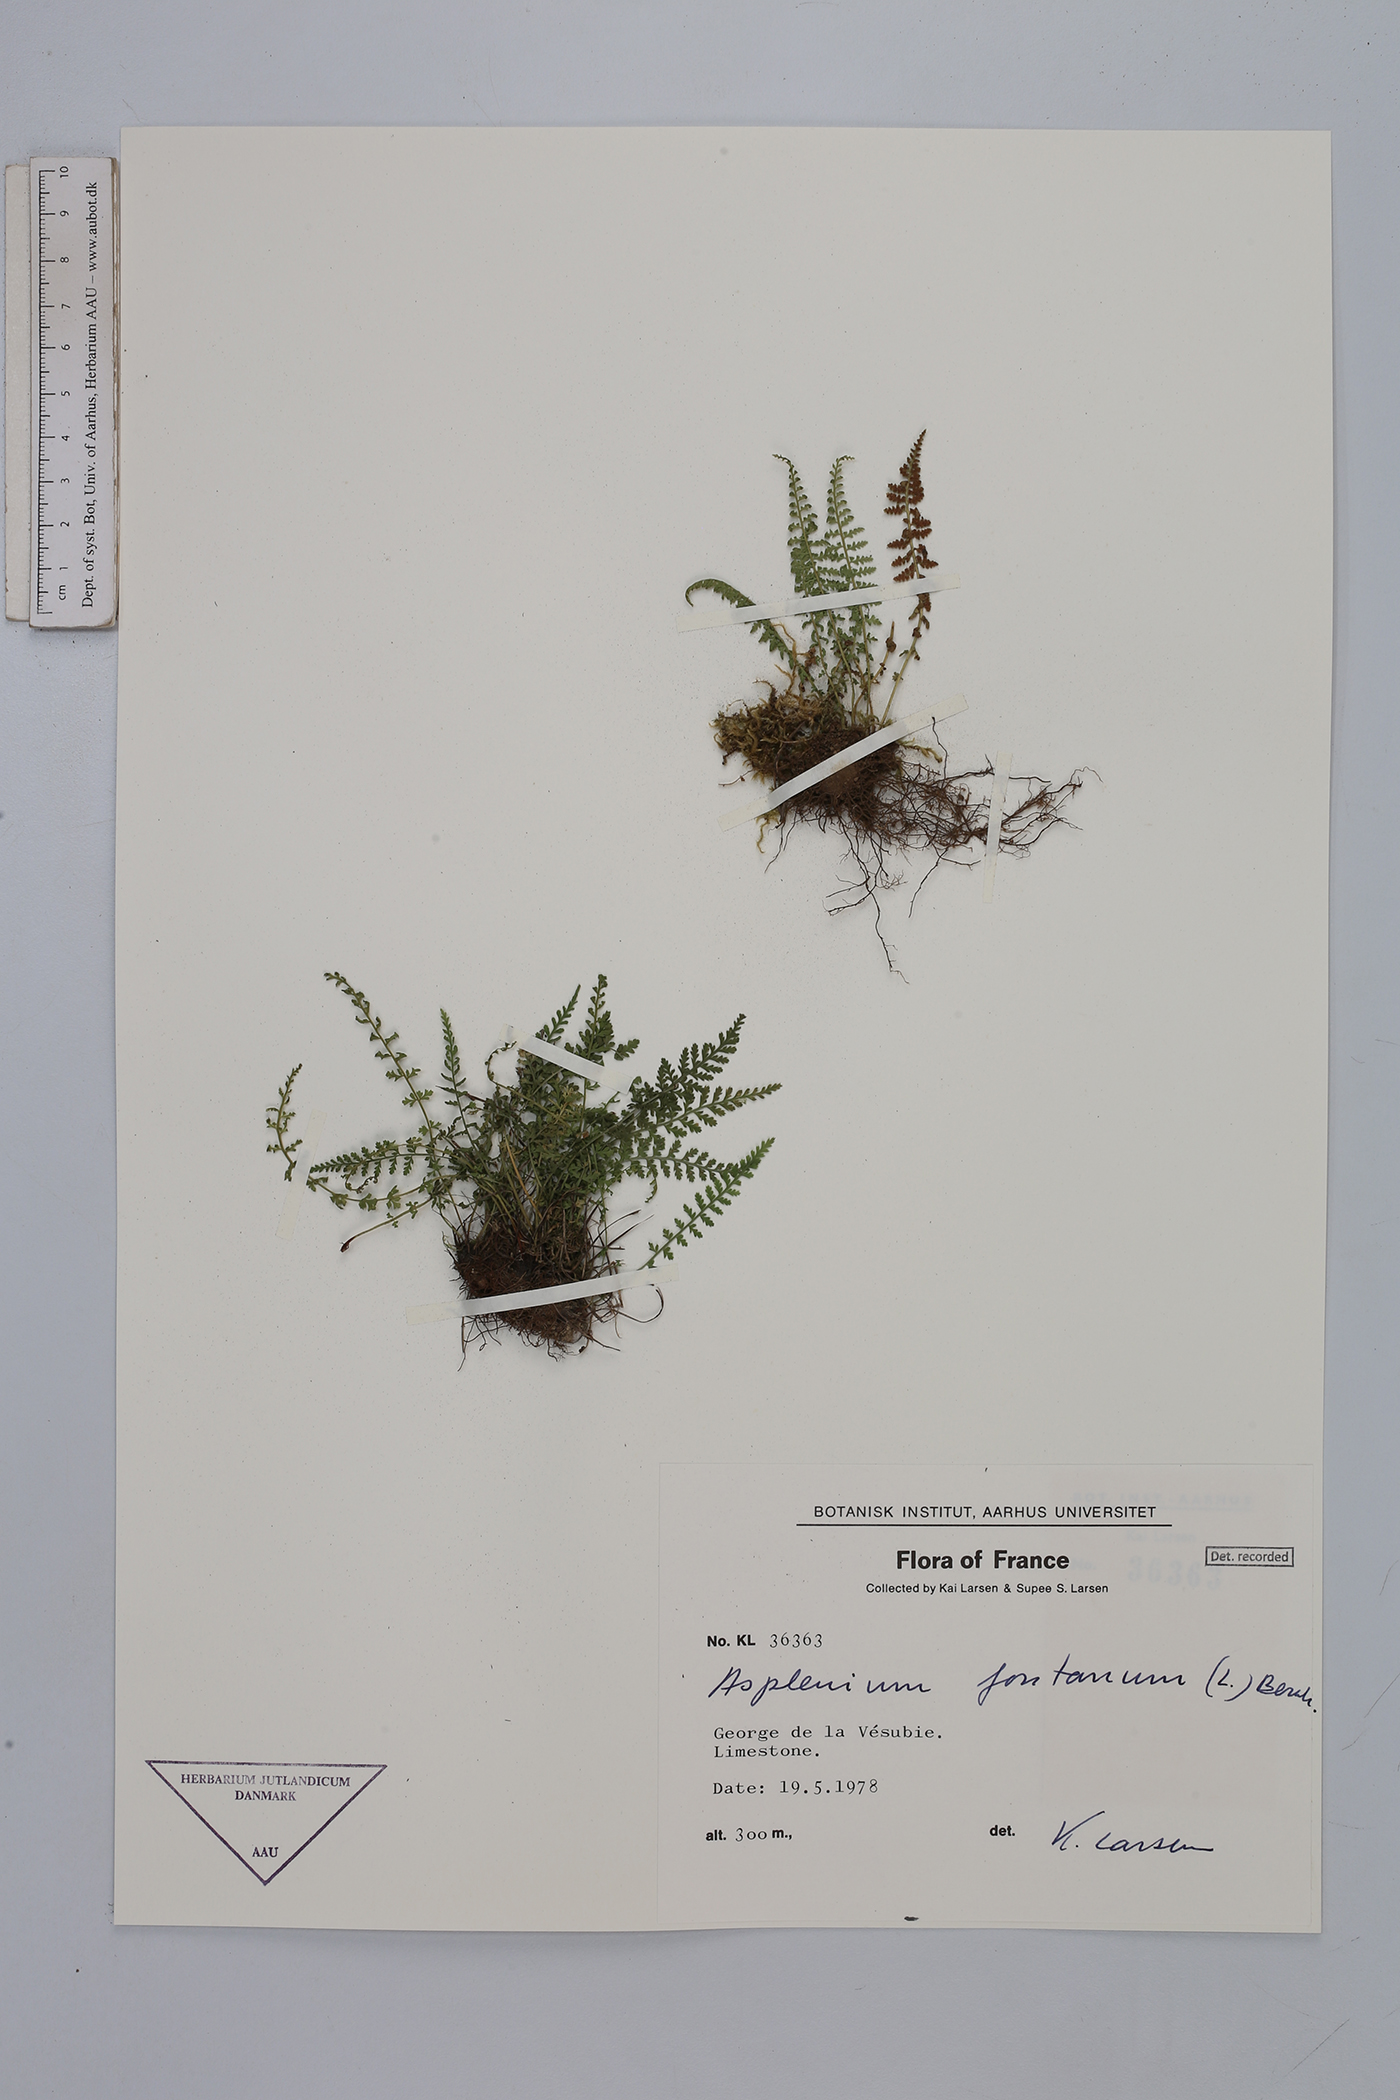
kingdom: Plantae
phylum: Tracheophyta
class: Polypodiopsida
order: Polypodiales
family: Aspleniaceae
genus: Asplenium
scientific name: Asplenium fontanum
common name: Fountain spleenwort
